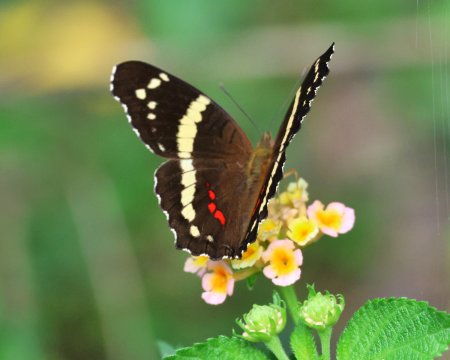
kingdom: Animalia
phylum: Arthropoda
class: Insecta
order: Lepidoptera
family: Nymphalidae
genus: Anartia
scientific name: Anartia fatima
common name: Banded Peacock
